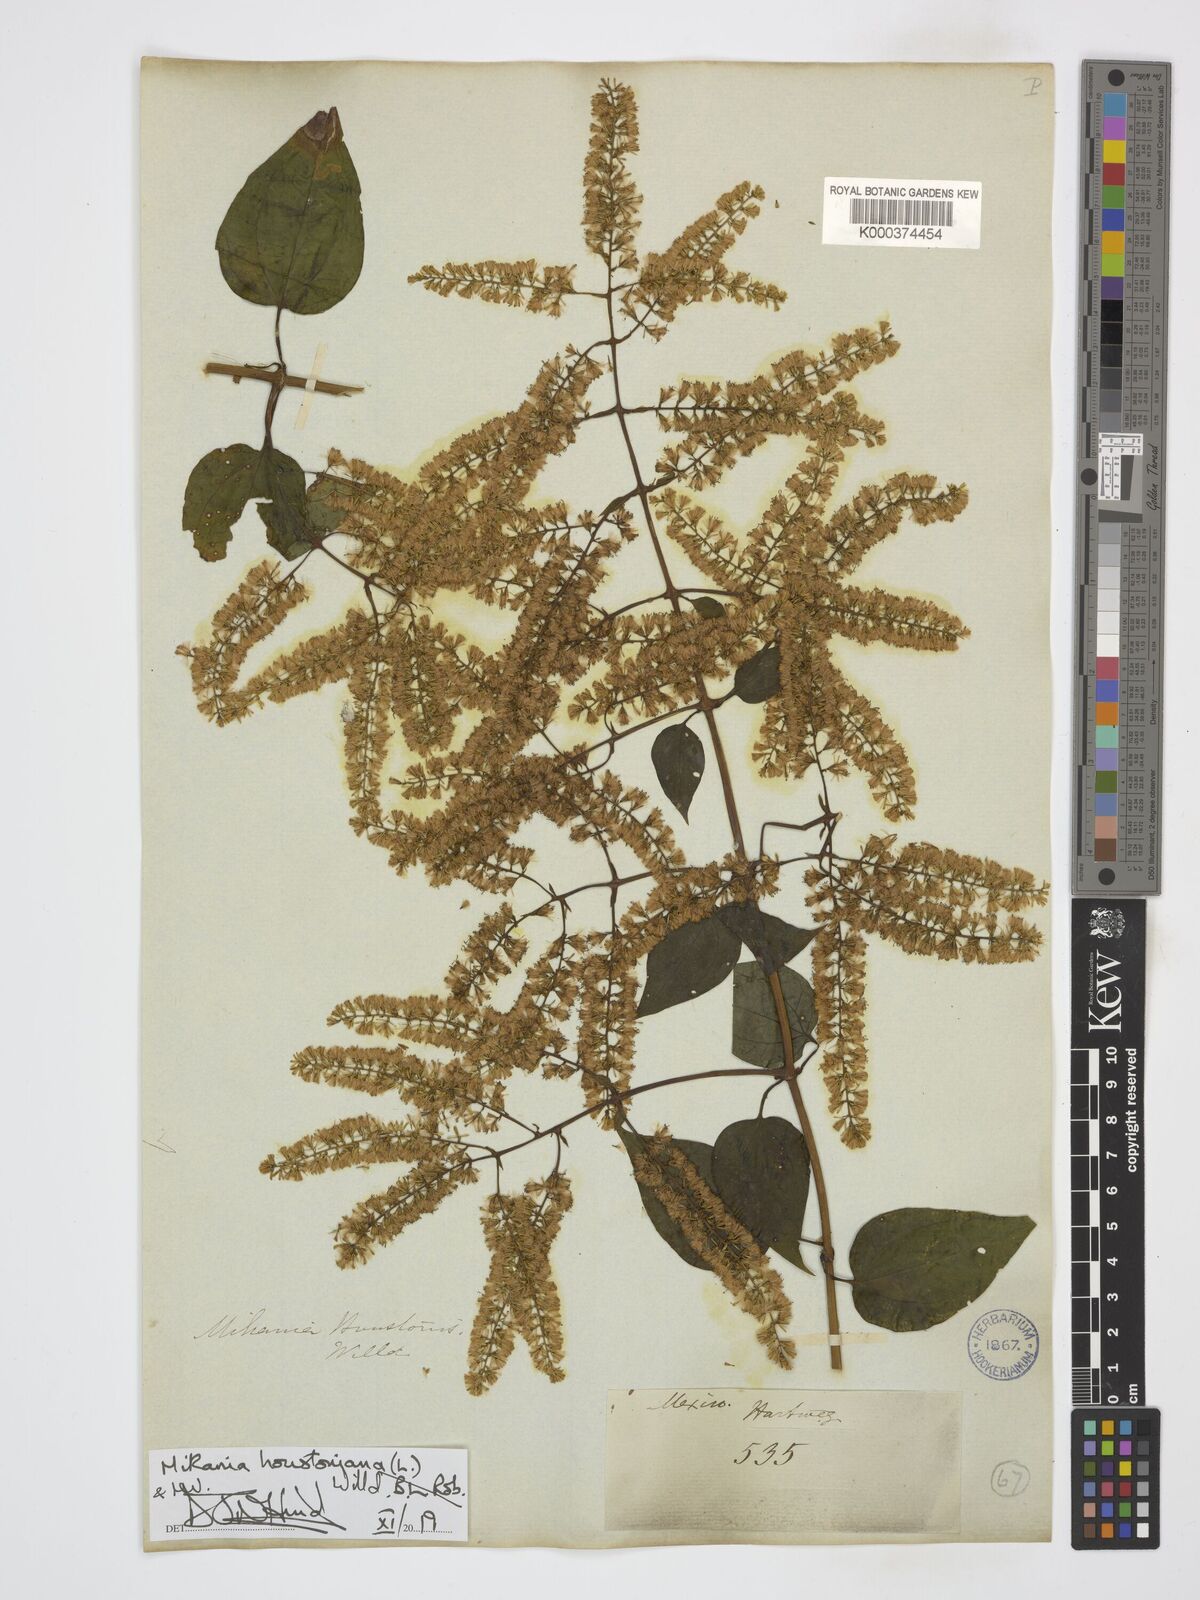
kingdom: Plantae
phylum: Tracheophyta
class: Magnoliopsida
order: Asterales
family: Asteraceae
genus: Mikania
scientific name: Mikania houstoniana
